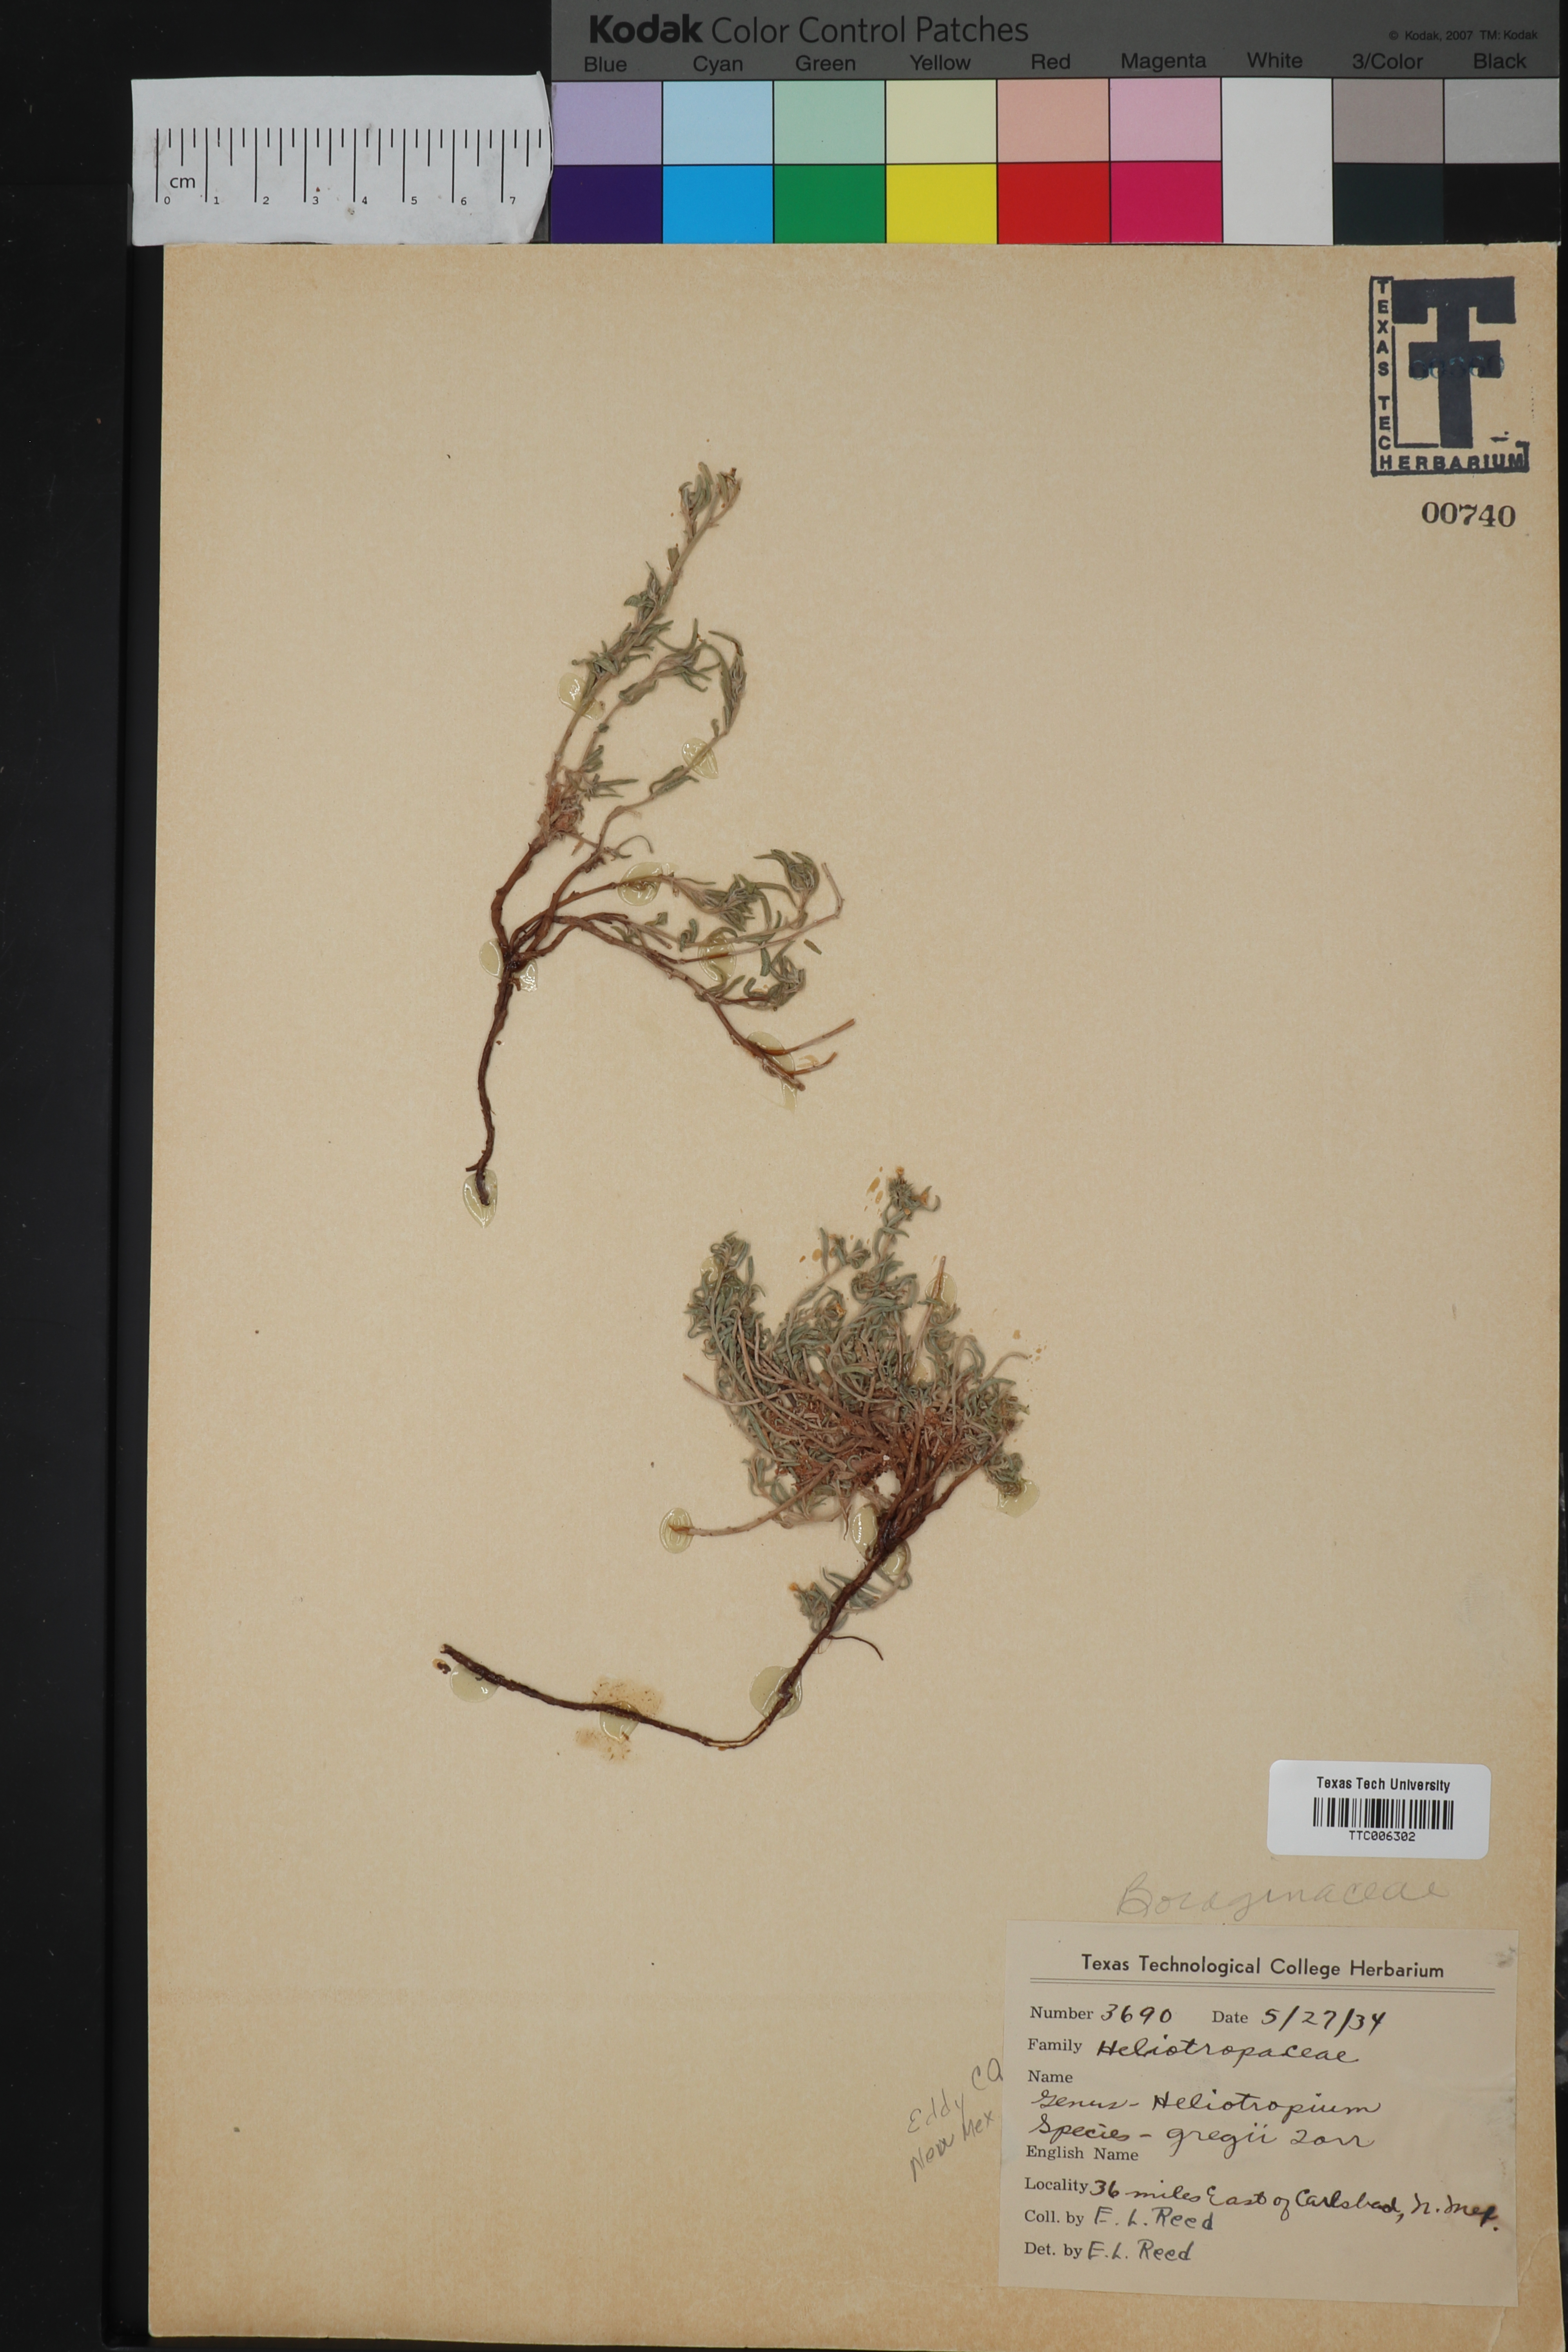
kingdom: Plantae
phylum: Tracheophyta
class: Magnoliopsida
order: Boraginales
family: Heliotropiaceae
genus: Euploca
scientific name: Euploca greggii
